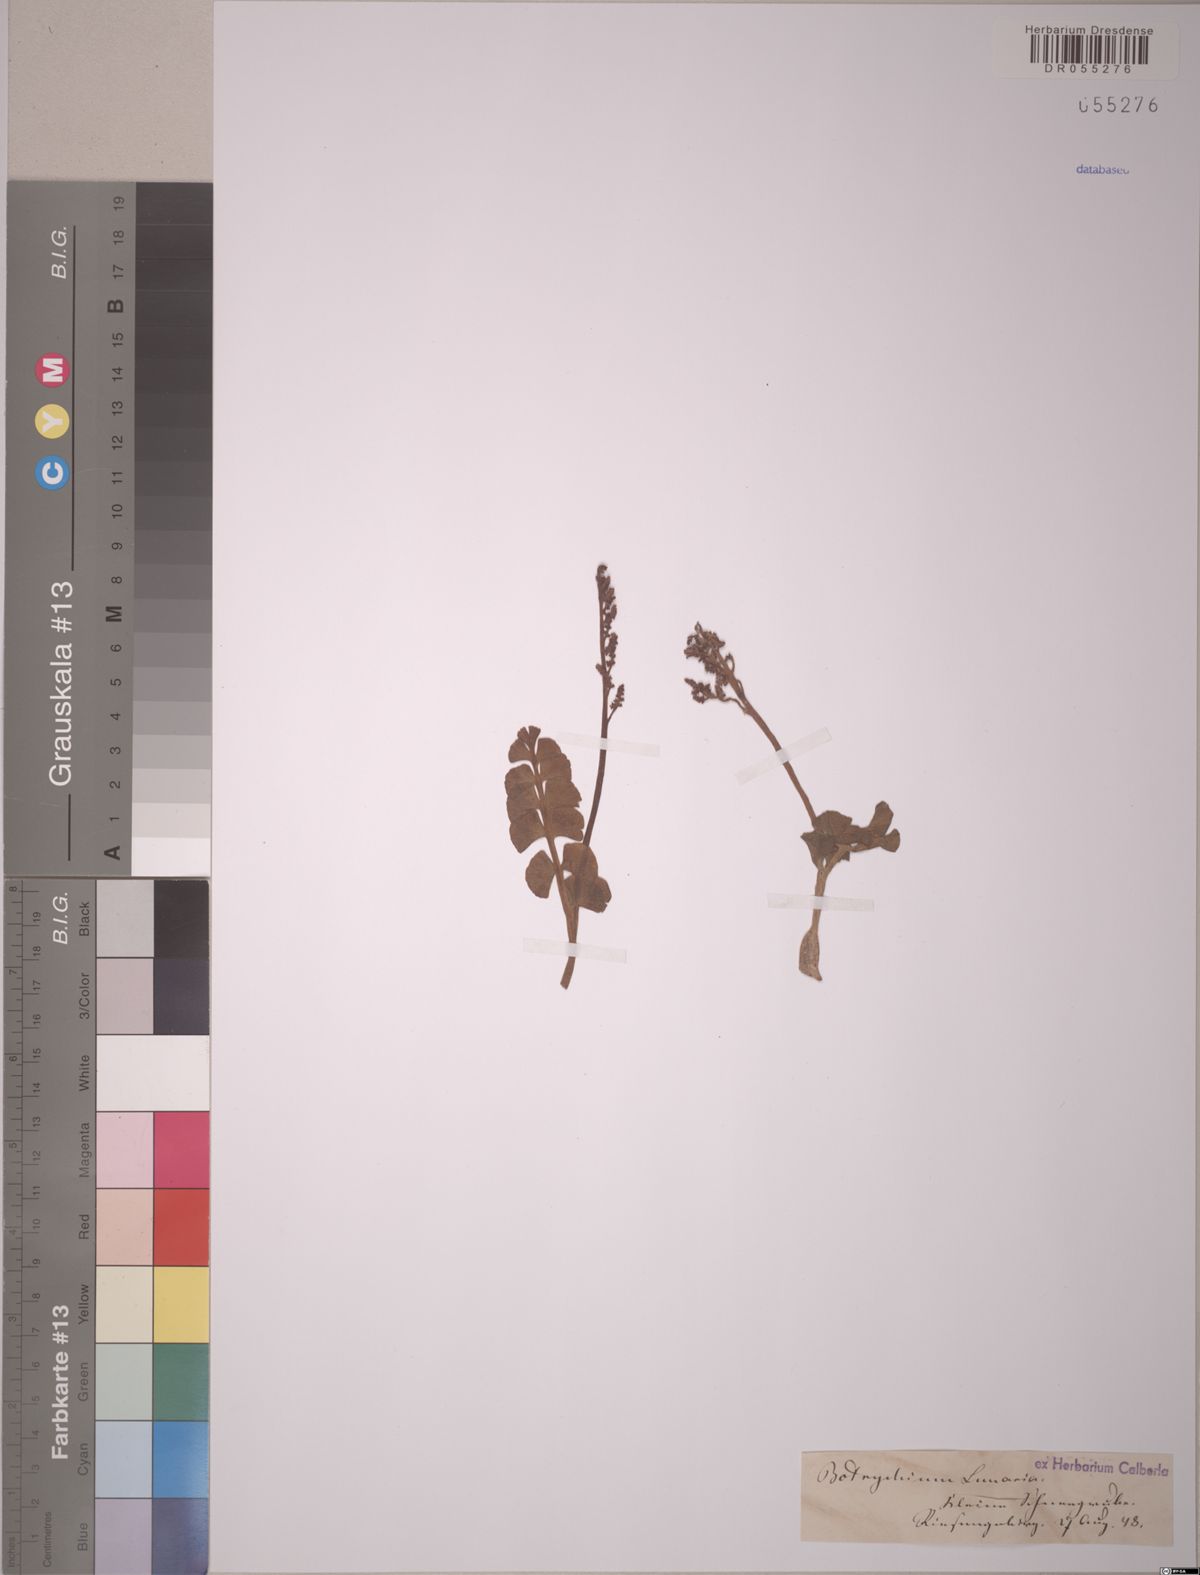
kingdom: Plantae
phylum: Tracheophyta
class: Polypodiopsida
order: Ophioglossales
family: Ophioglossaceae
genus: Botrychium
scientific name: Botrychium lunaria
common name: Moonwort
